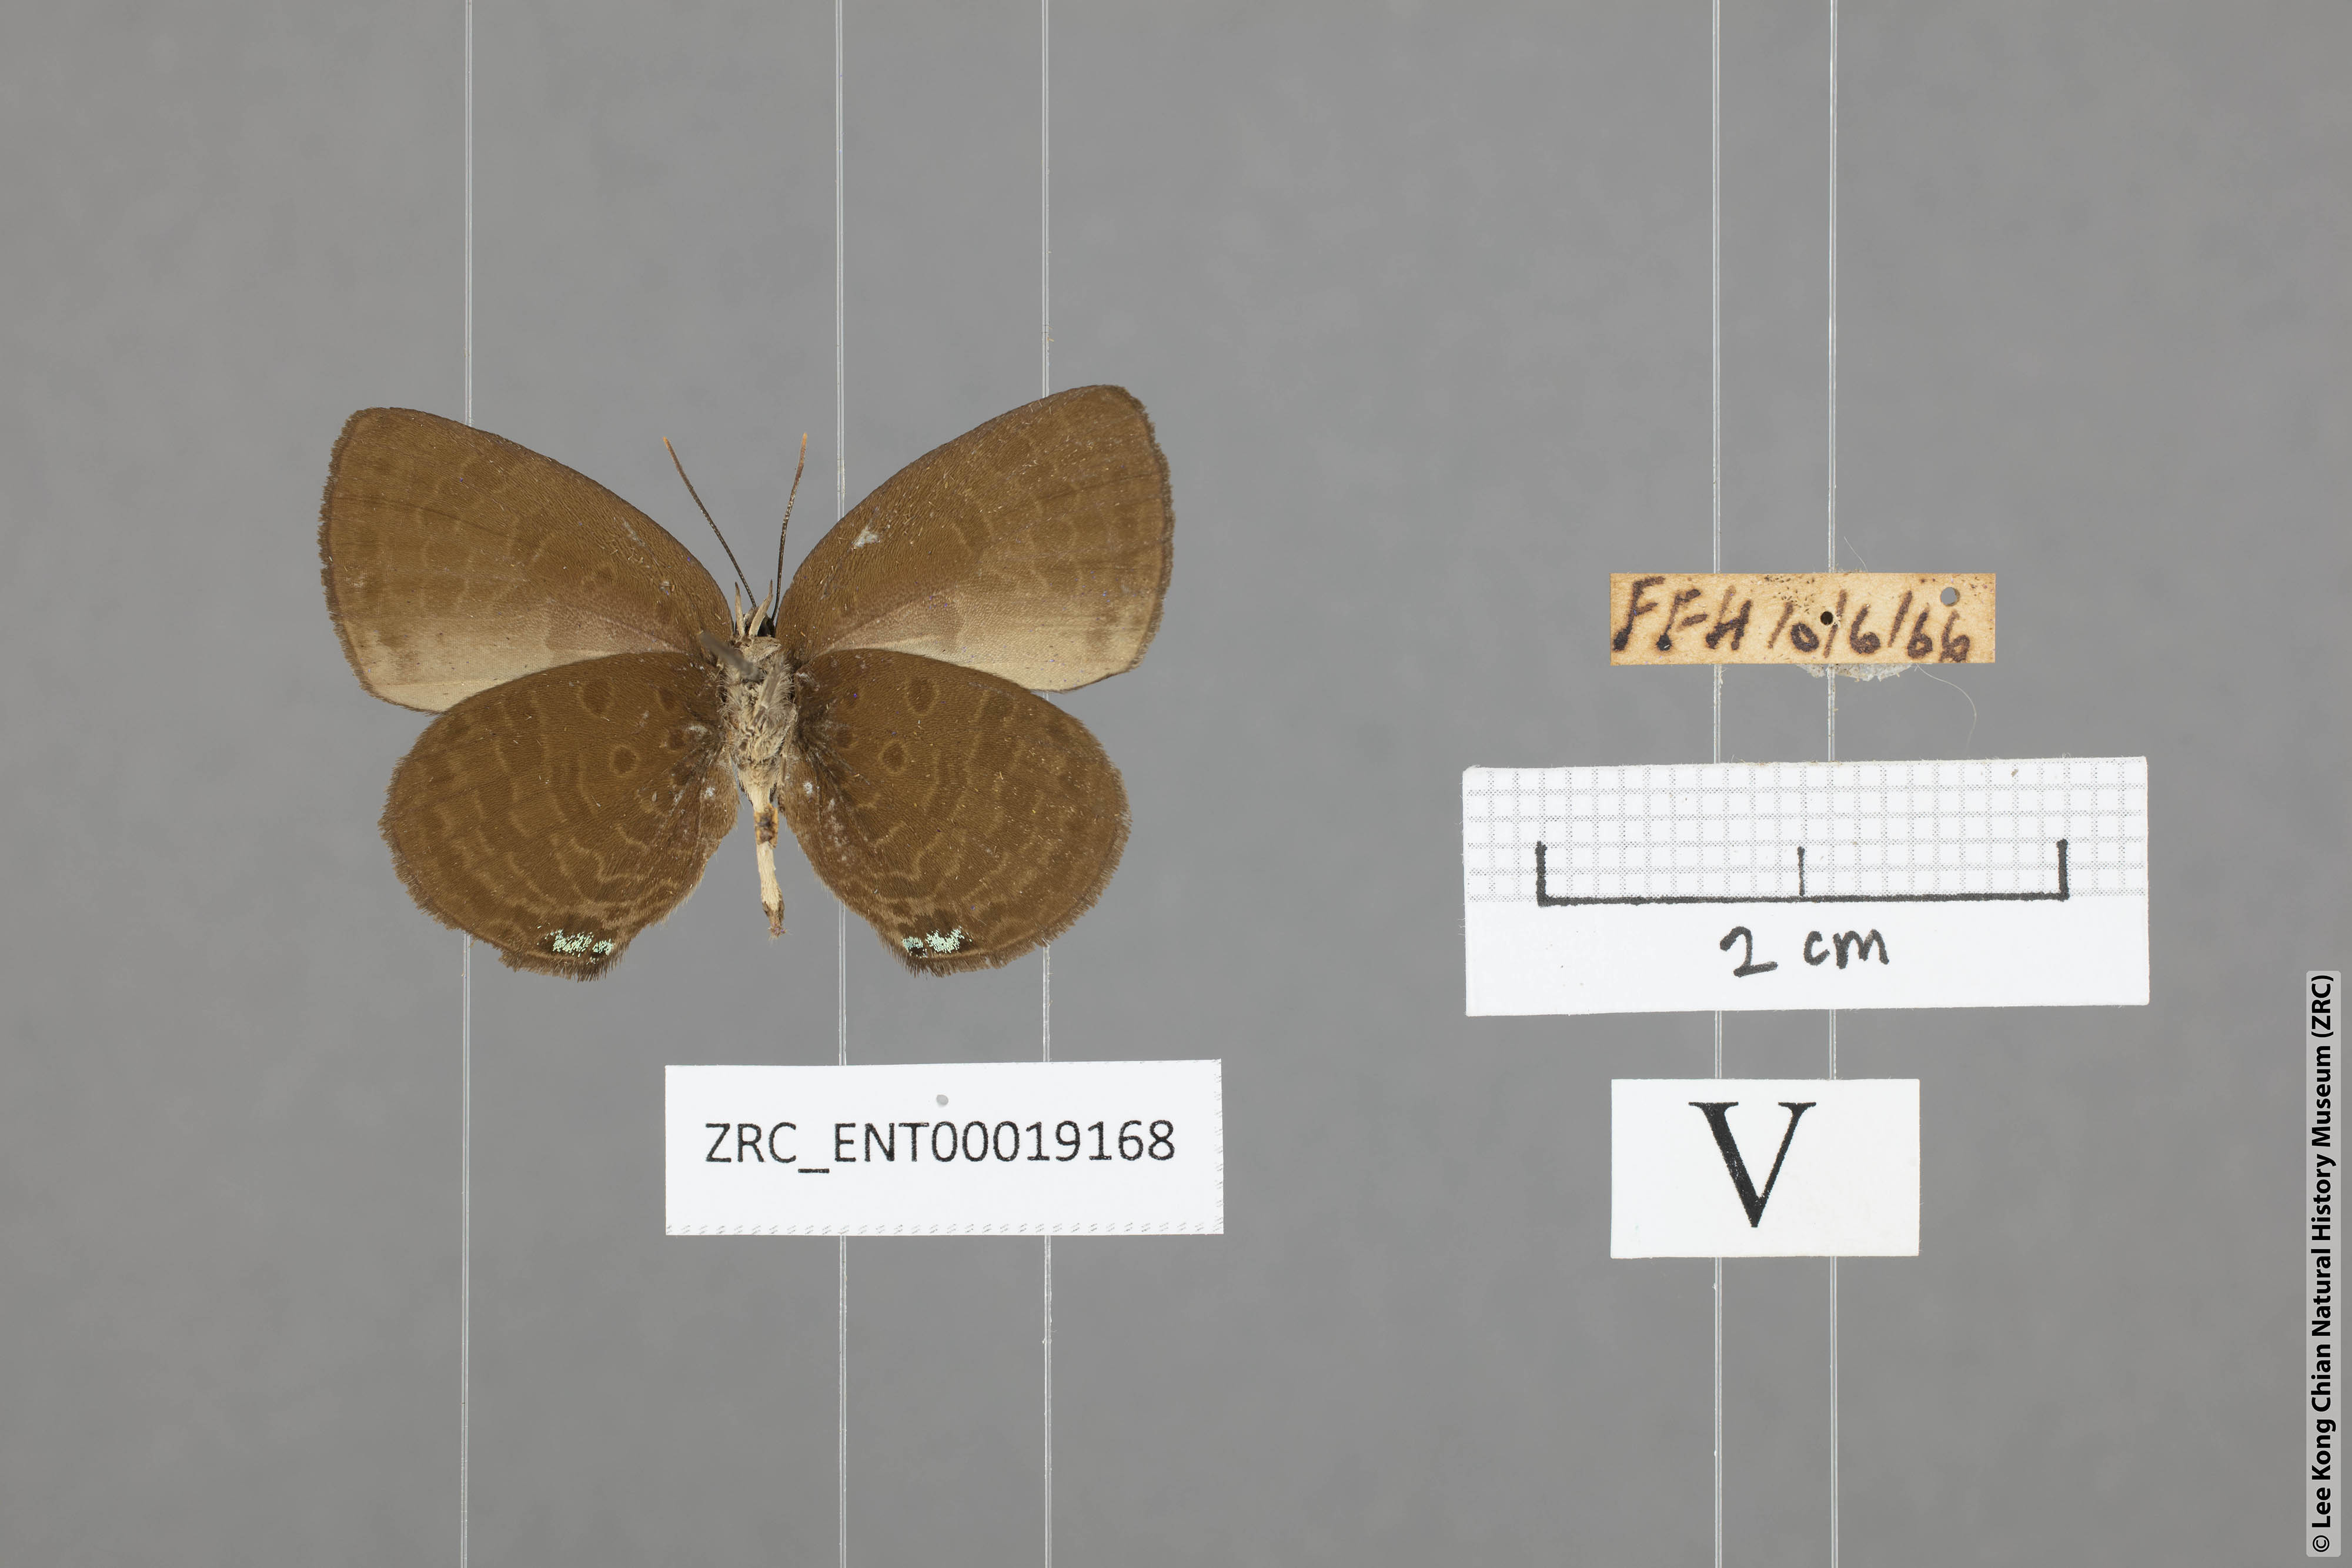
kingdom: Animalia
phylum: Arthropoda
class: Insecta
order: Lepidoptera
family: Lycaenidae
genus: Arhopala
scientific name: Arhopala antimuta
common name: Small tailless oakblue
